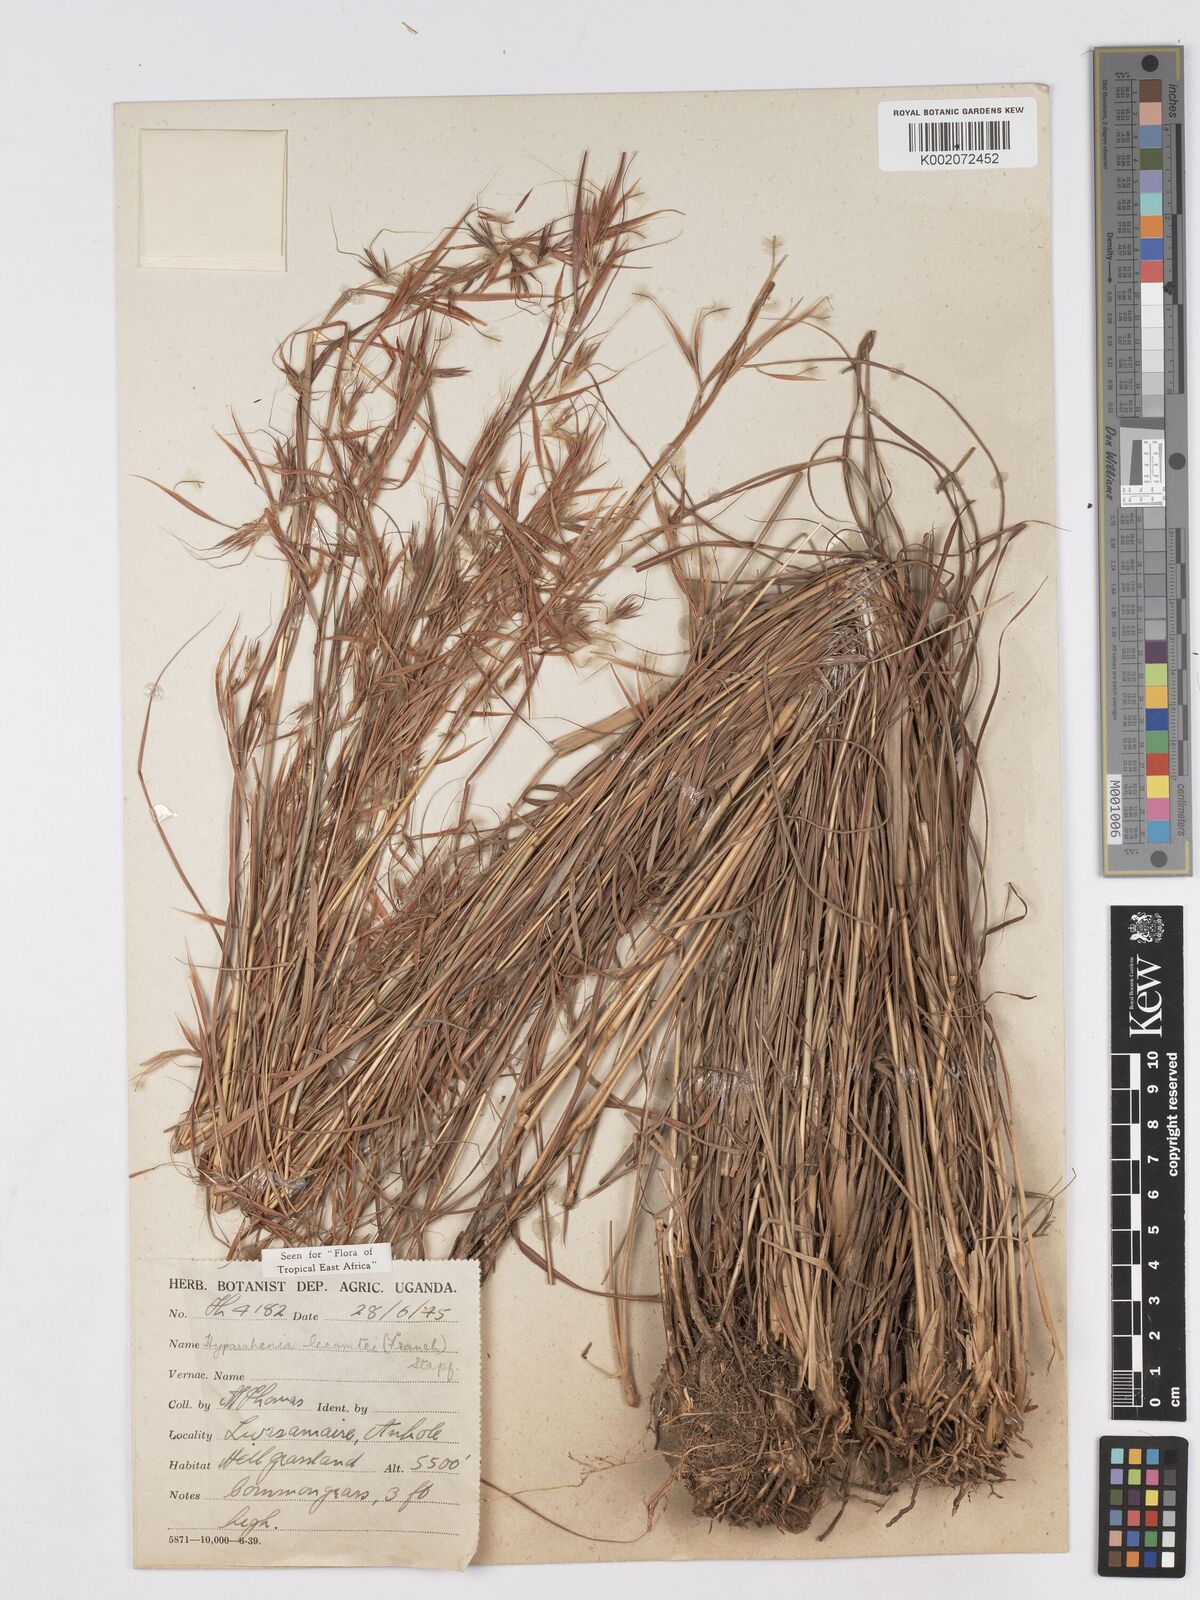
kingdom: Plantae
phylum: Tracheophyta
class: Liliopsida
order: Poales
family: Poaceae
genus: Hyparrhenia
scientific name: Hyparrhenia newtonii
